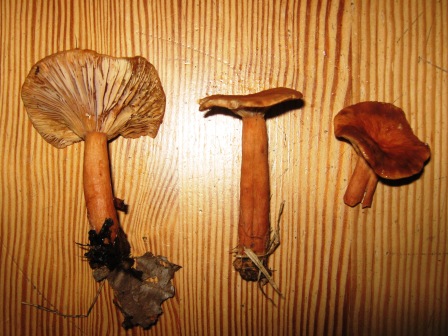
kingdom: Fungi
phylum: Basidiomycota
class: Agaricomycetes
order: Russulales
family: Russulaceae
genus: Lactarius
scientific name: Lactarius aurantiacus
